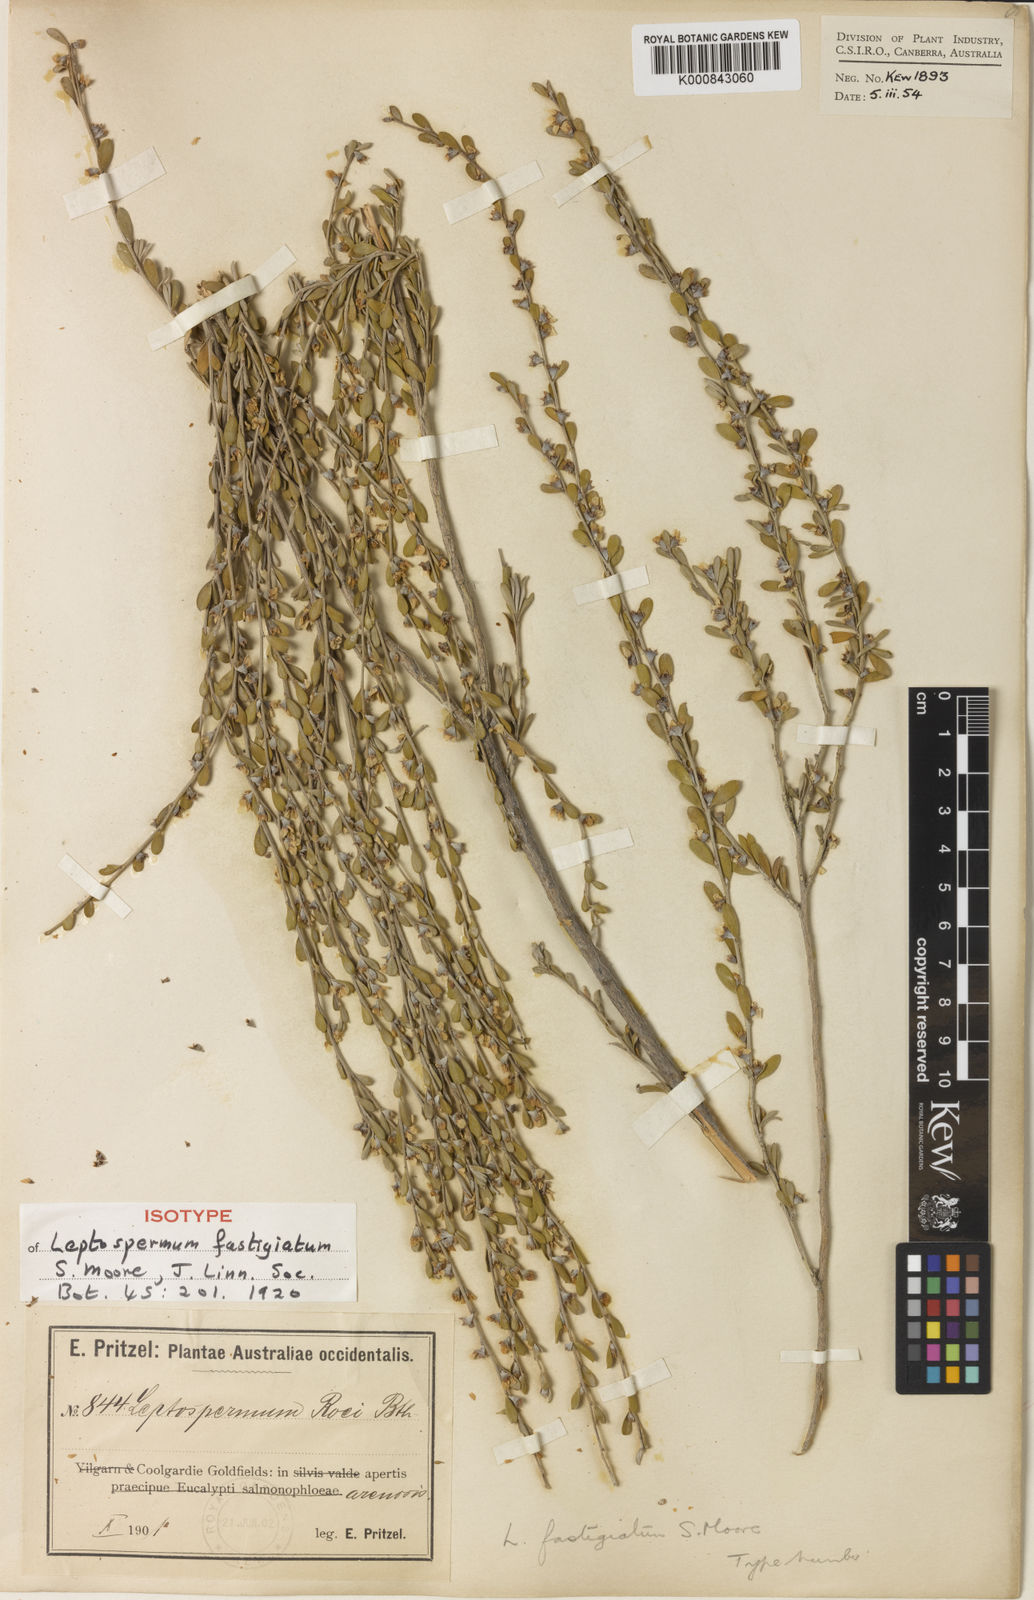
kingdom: Plantae
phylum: Tracheophyta
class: Magnoliopsida
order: Myrtales
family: Myrtaceae
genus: Leptospermum
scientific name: Leptospermum fastigiatum
